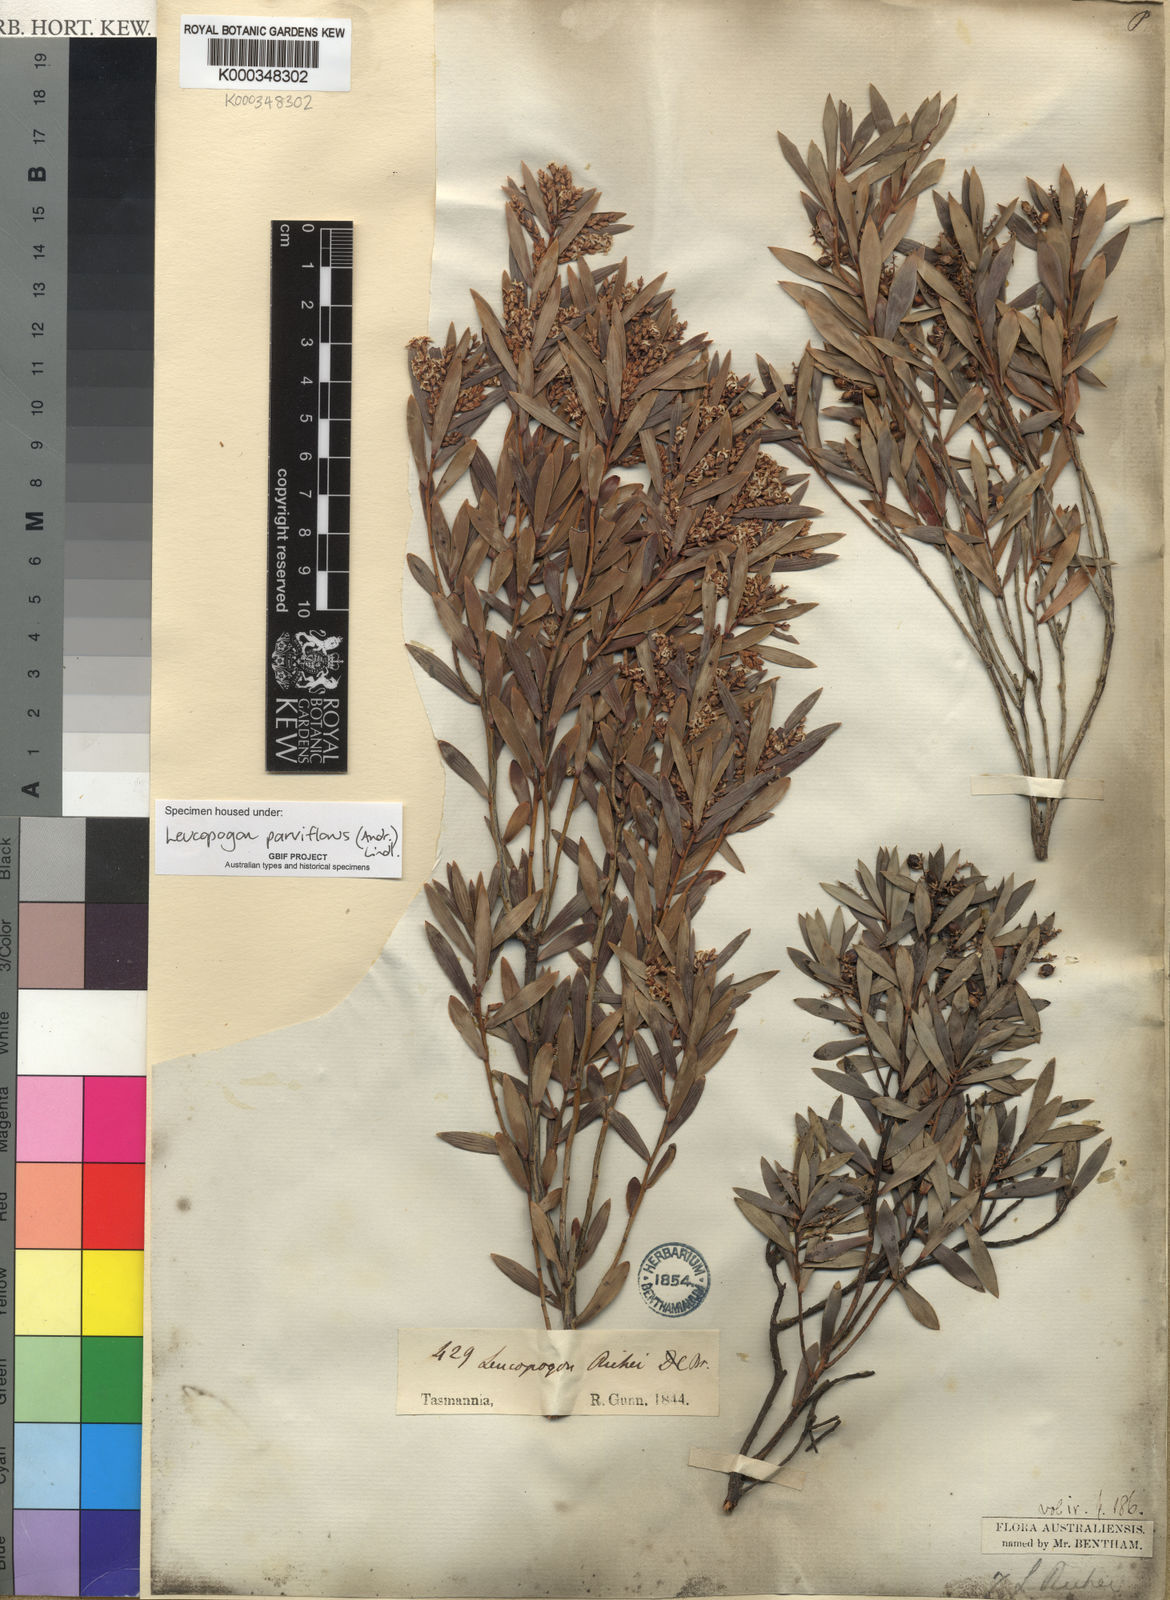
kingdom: Plantae
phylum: Tracheophyta
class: Magnoliopsida
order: Ericales
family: Ericaceae
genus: Leptecophylla
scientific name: Leptecophylla parvifolia
